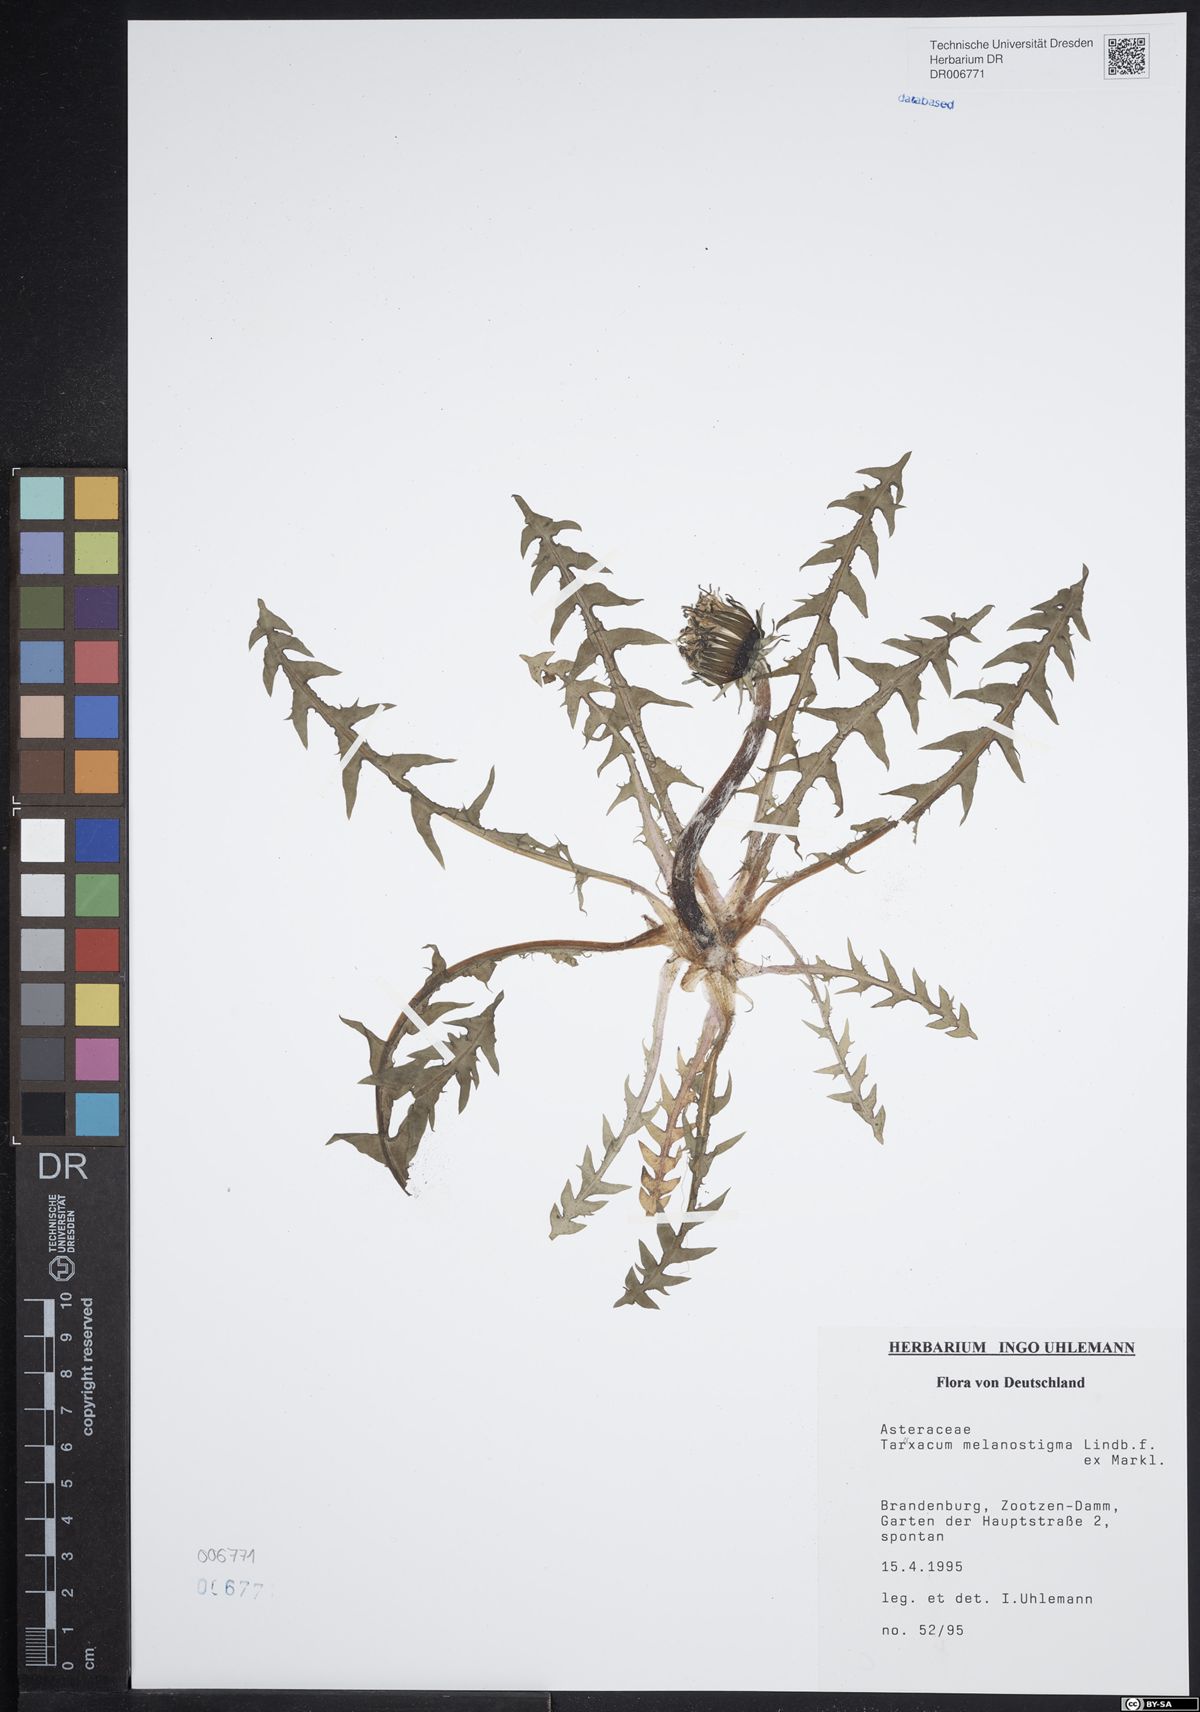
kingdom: Plantae
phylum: Tracheophyta
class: Magnoliopsida
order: Asterales
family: Asteraceae
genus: Taraxacum
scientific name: Taraxacum melanostigma
